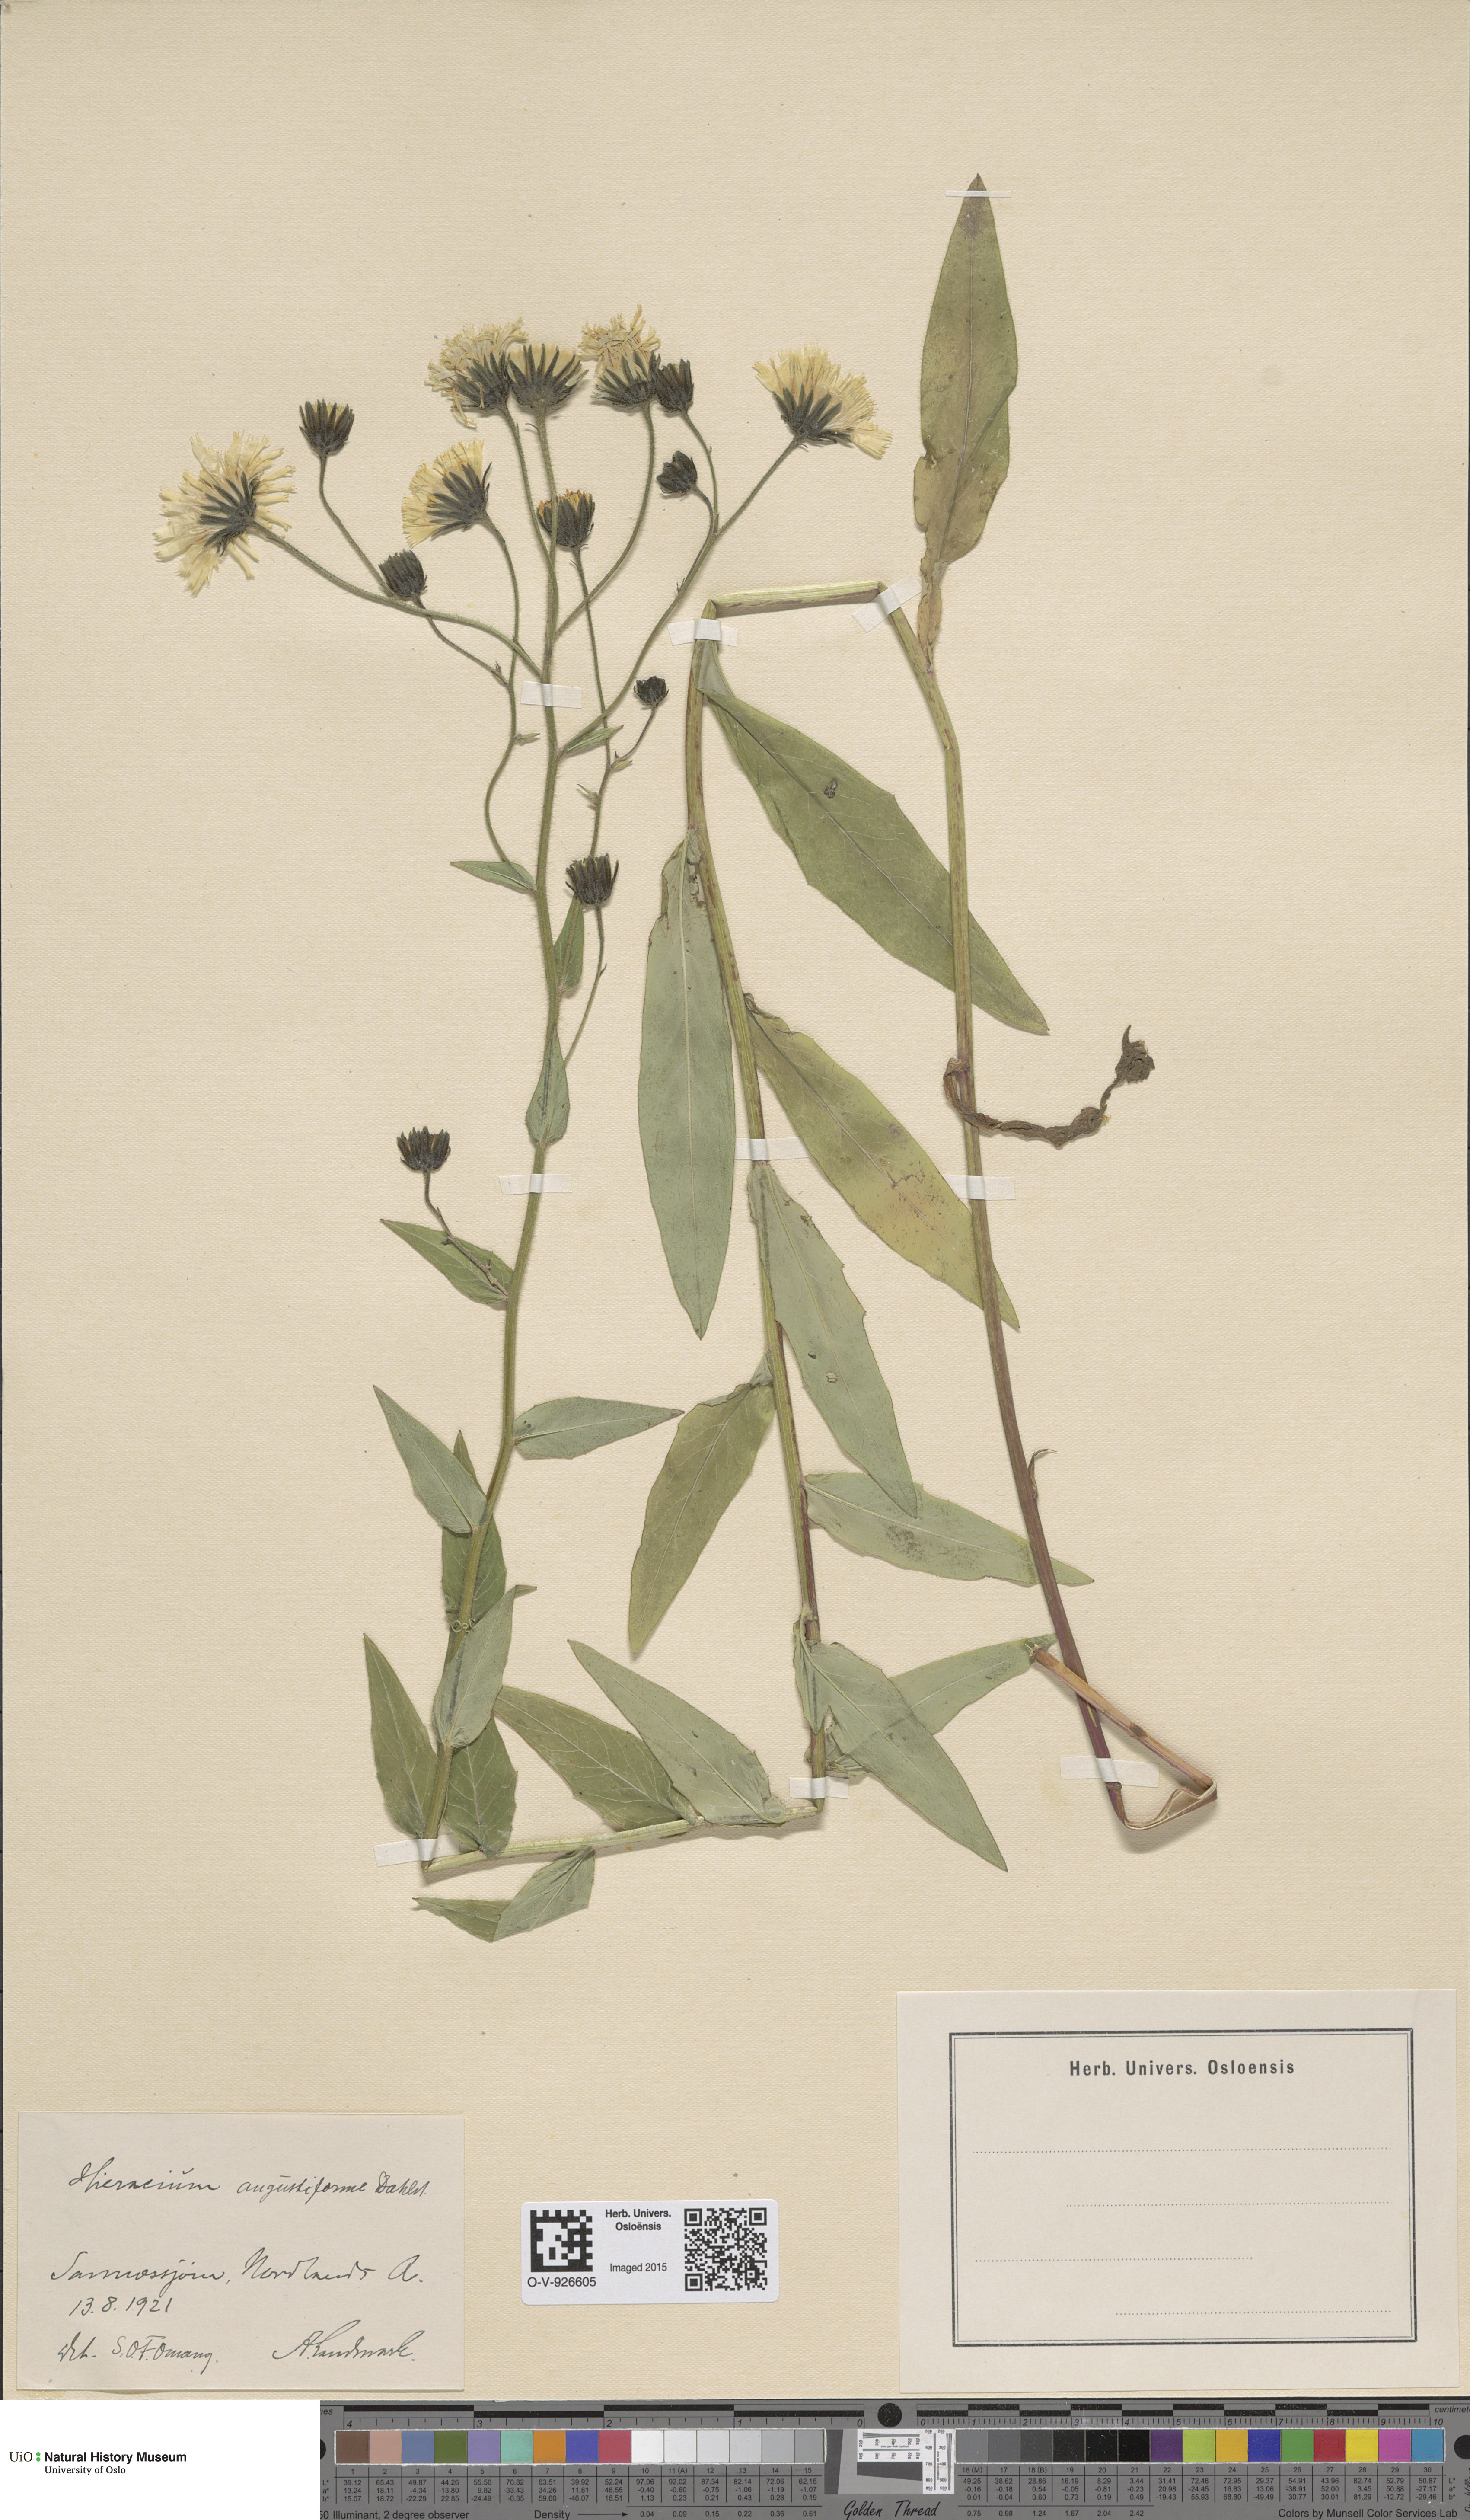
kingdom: Plantae
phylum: Tracheophyta
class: Magnoliopsida
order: Asterales
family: Asteraceae
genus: Hieracium
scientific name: Hieracium
